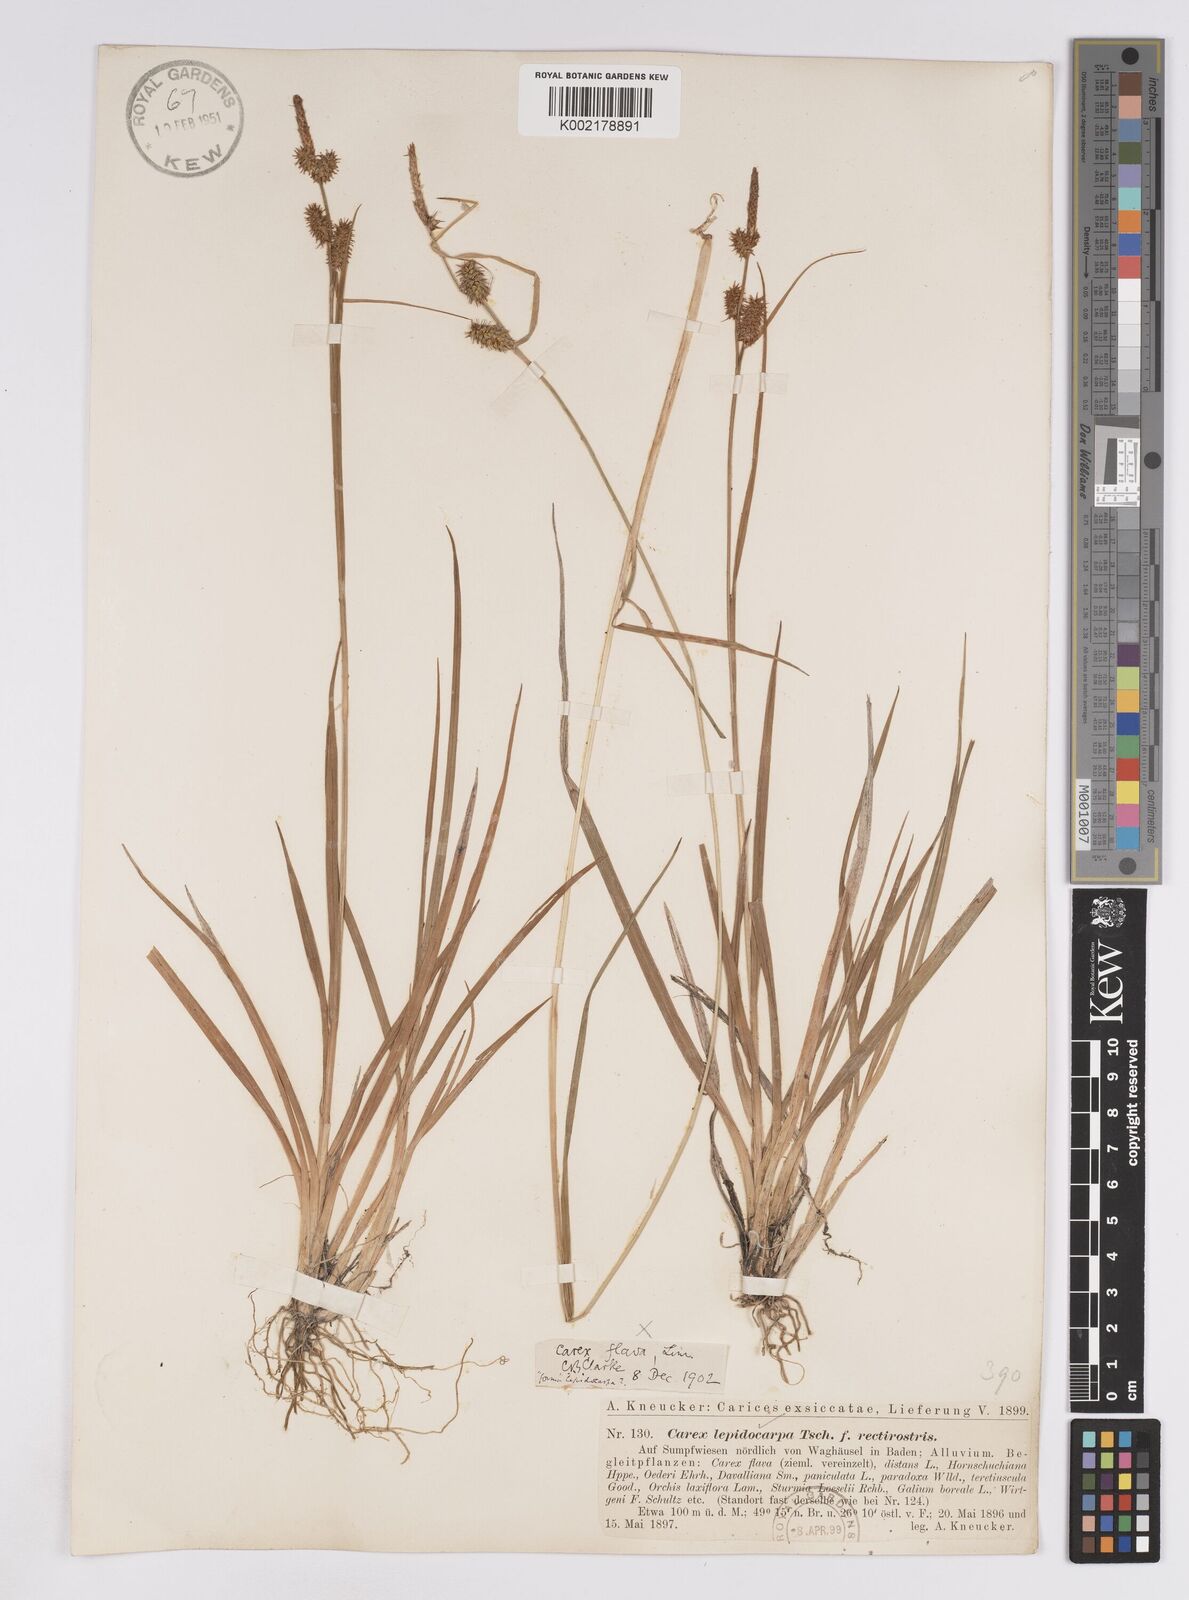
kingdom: Plantae
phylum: Tracheophyta
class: Liliopsida
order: Poales
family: Cyperaceae
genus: Carex
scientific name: Carex lepidocarpa
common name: Long-stalked yellow-sedge
